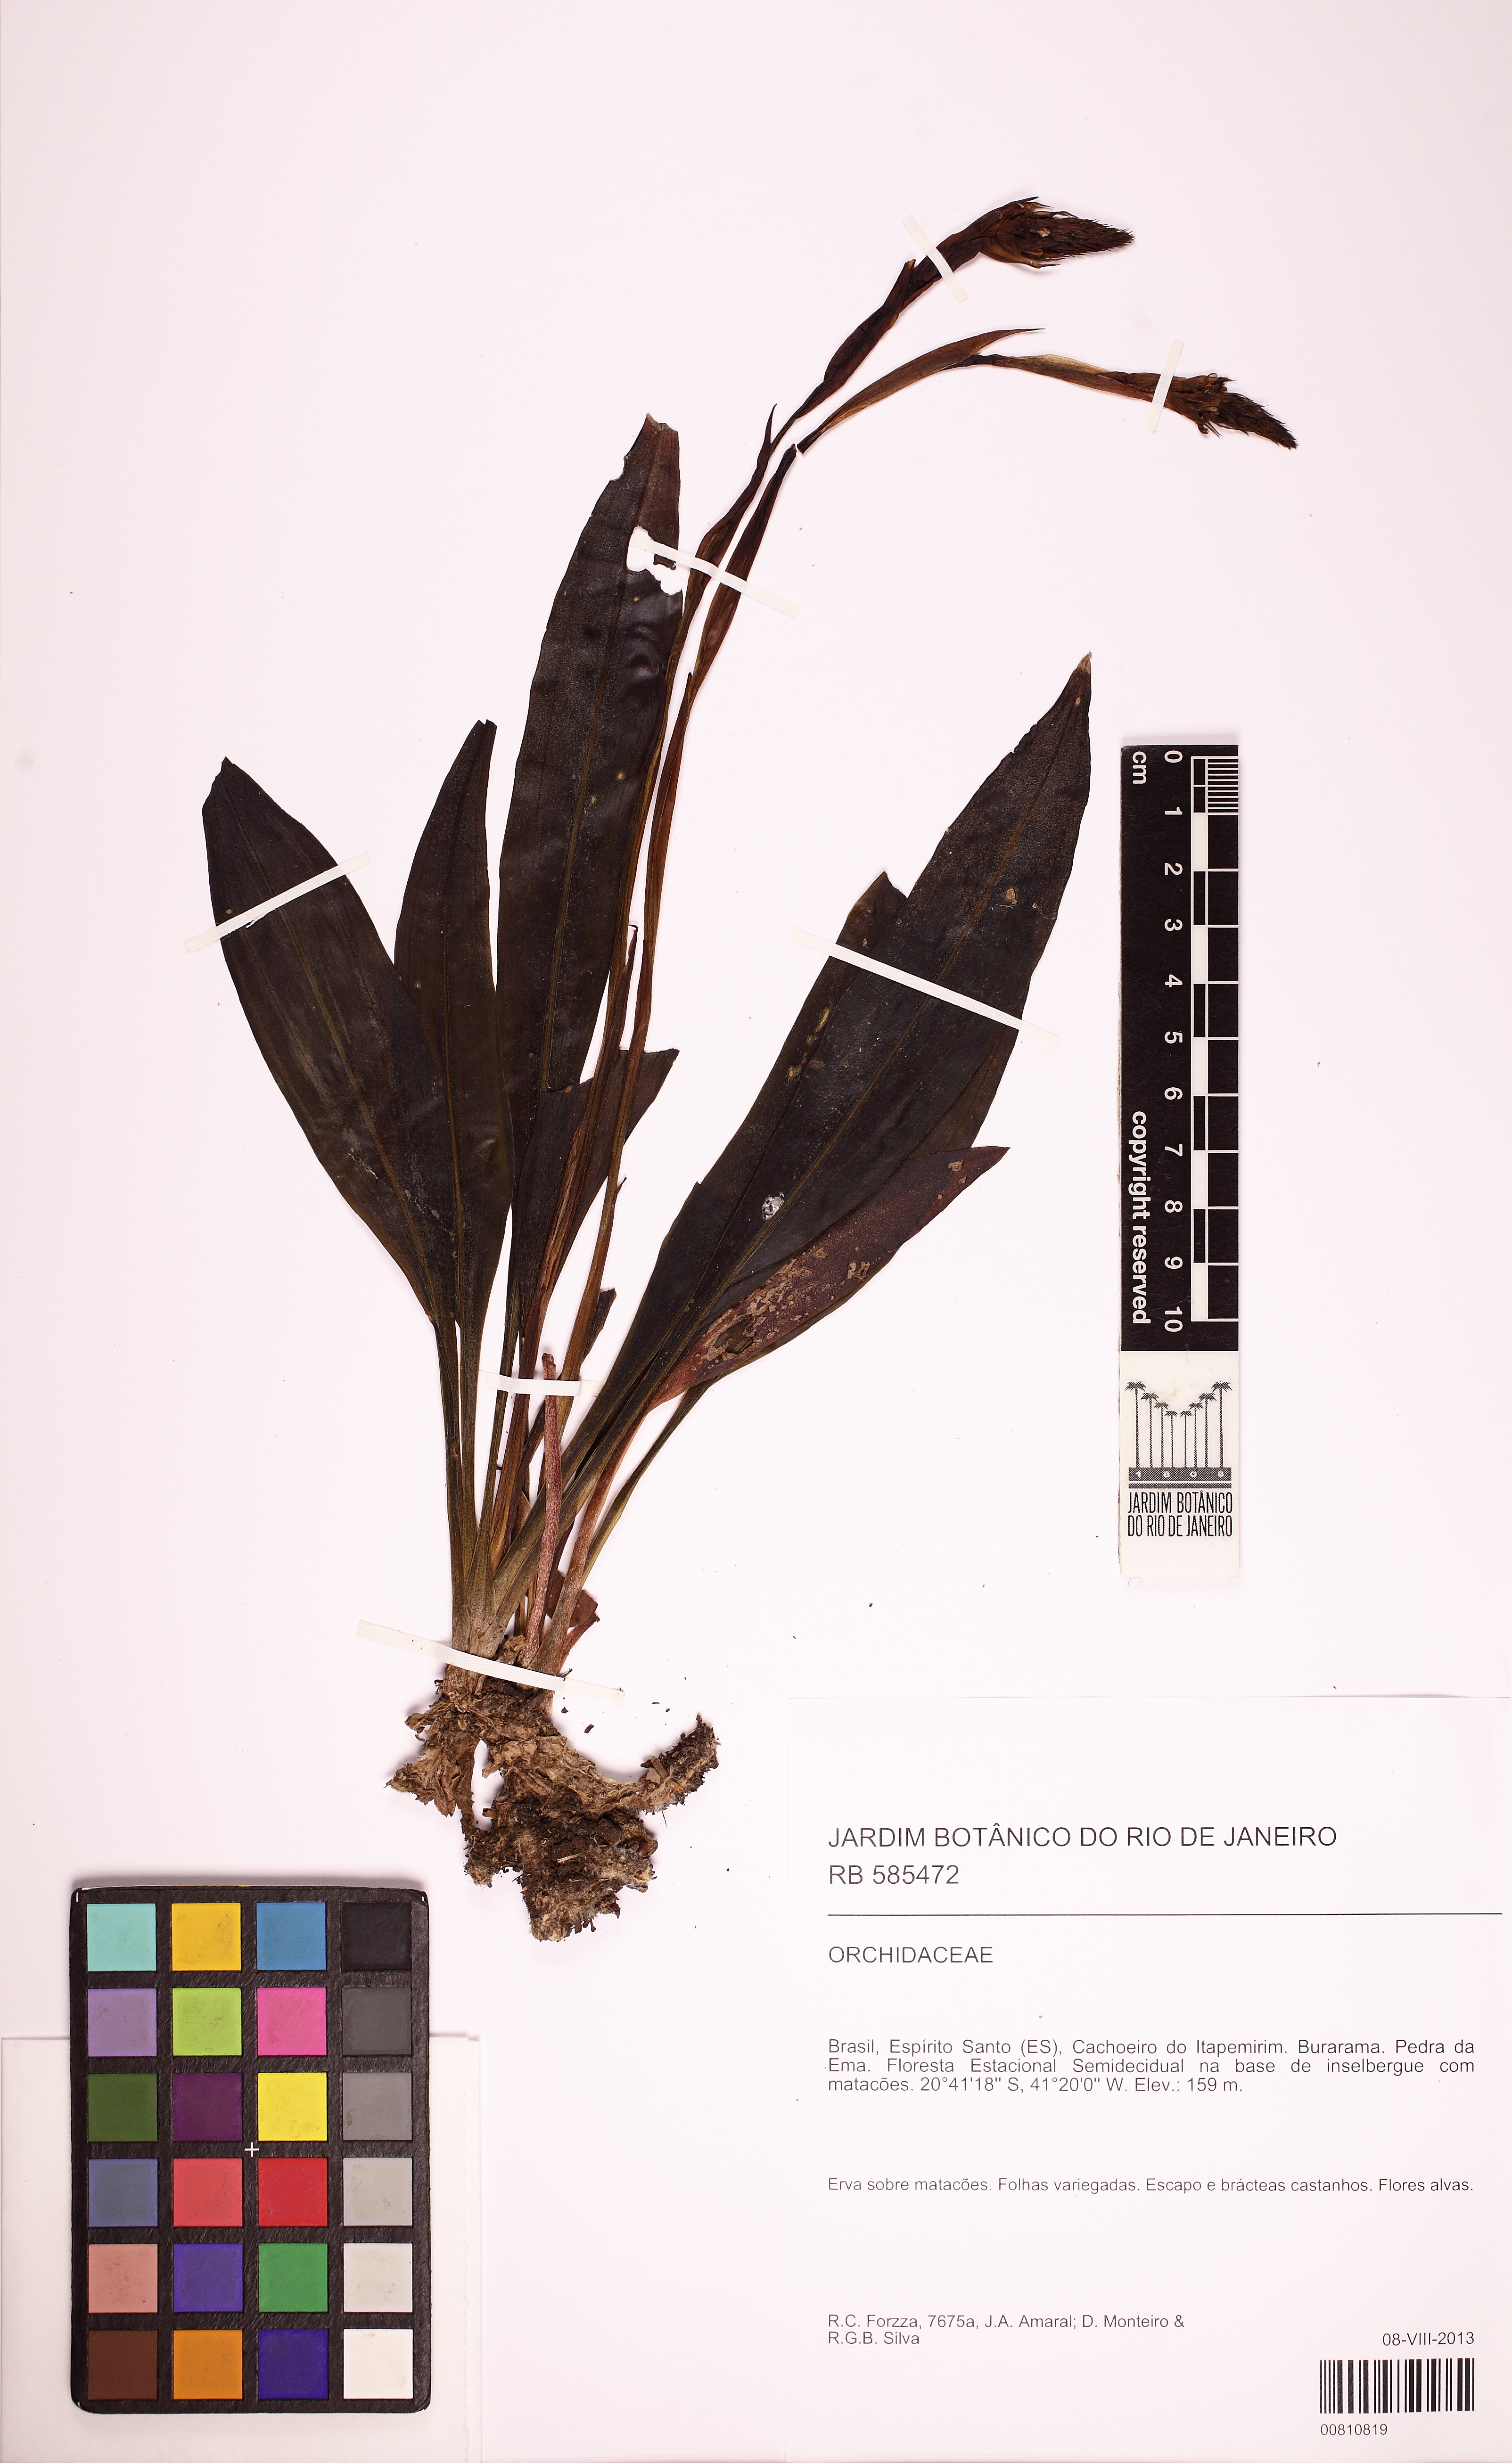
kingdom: Plantae
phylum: Tracheophyta
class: Liliopsida
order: Asparagales
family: Orchidaceae
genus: Cyclopogon
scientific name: Cyclopogon
